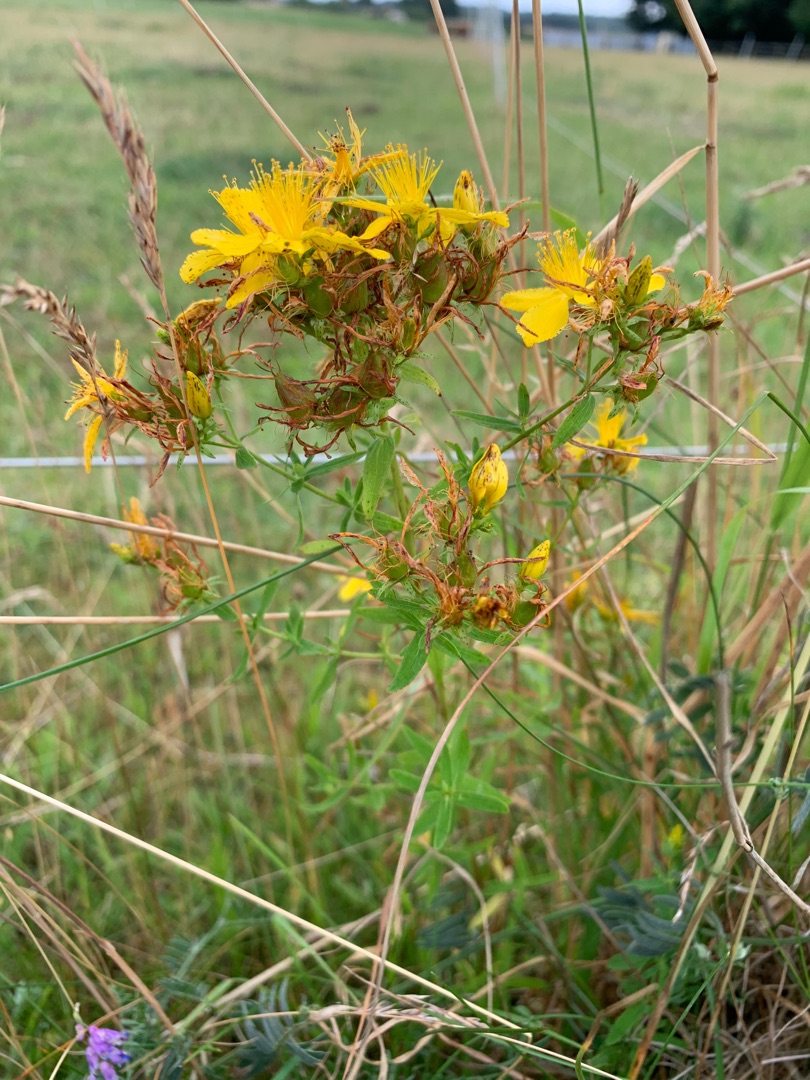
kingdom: Plantae
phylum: Tracheophyta
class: Magnoliopsida
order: Malpighiales
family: Hypericaceae
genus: Hypericum
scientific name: Hypericum perforatum
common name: Prikbladet perikon
